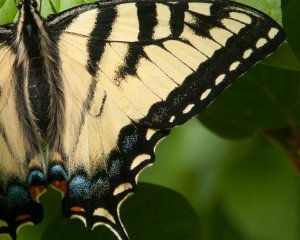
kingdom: Animalia
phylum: Arthropoda
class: Insecta
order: Lepidoptera
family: Papilionidae
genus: Pterourus
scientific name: Pterourus canadensis
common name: Canadian Tiger Swallowtail
